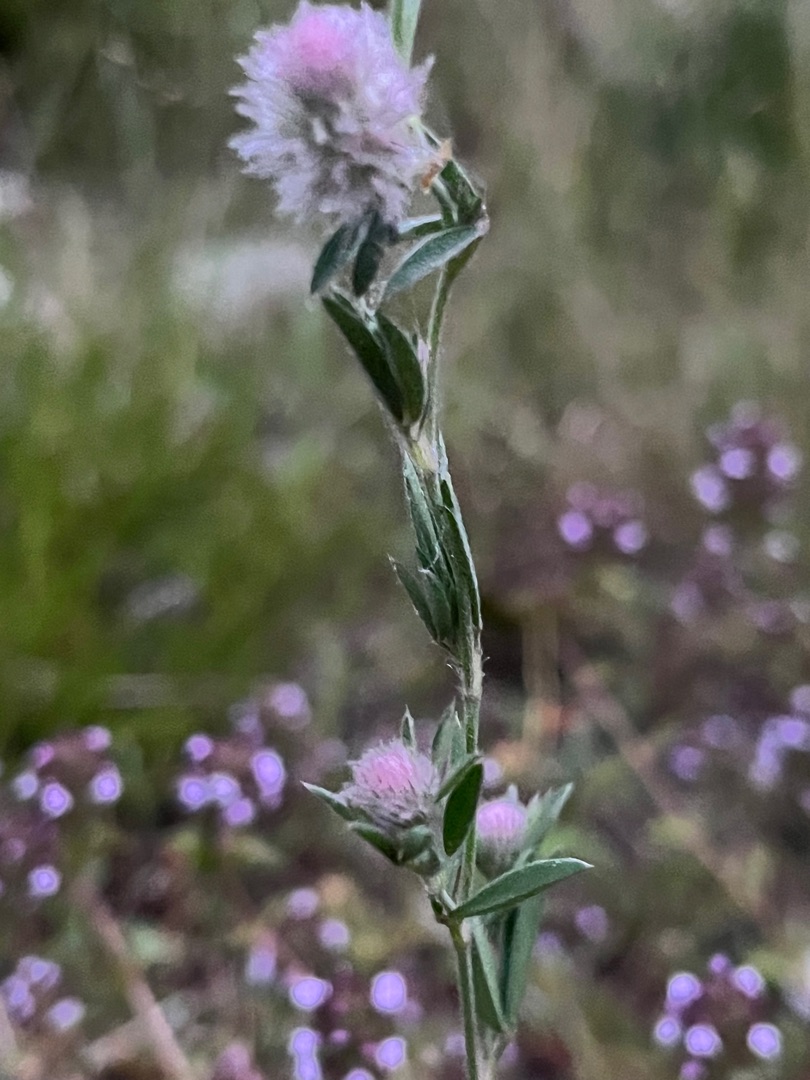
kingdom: Plantae
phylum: Tracheophyta
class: Magnoliopsida
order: Fabales
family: Fabaceae
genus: Trifolium
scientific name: Trifolium arvense
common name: Hare-kløver
